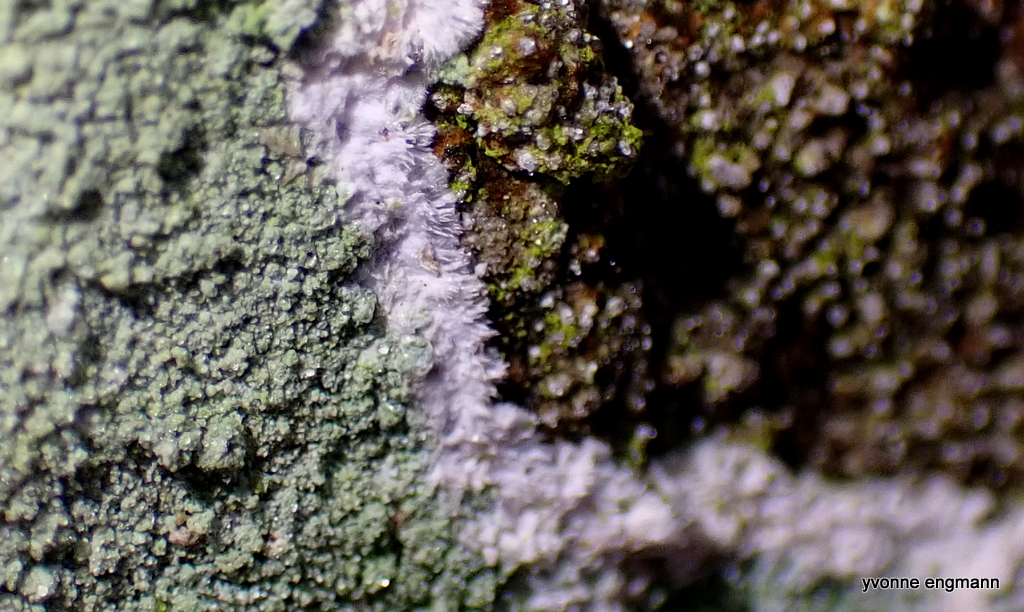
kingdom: Fungi
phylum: Ascomycota
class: Lecanoromycetes
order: Lecanorales
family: Haematommataceae
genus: Haematomma
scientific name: Haematomma ochroleucum
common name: gul trådkantlav
